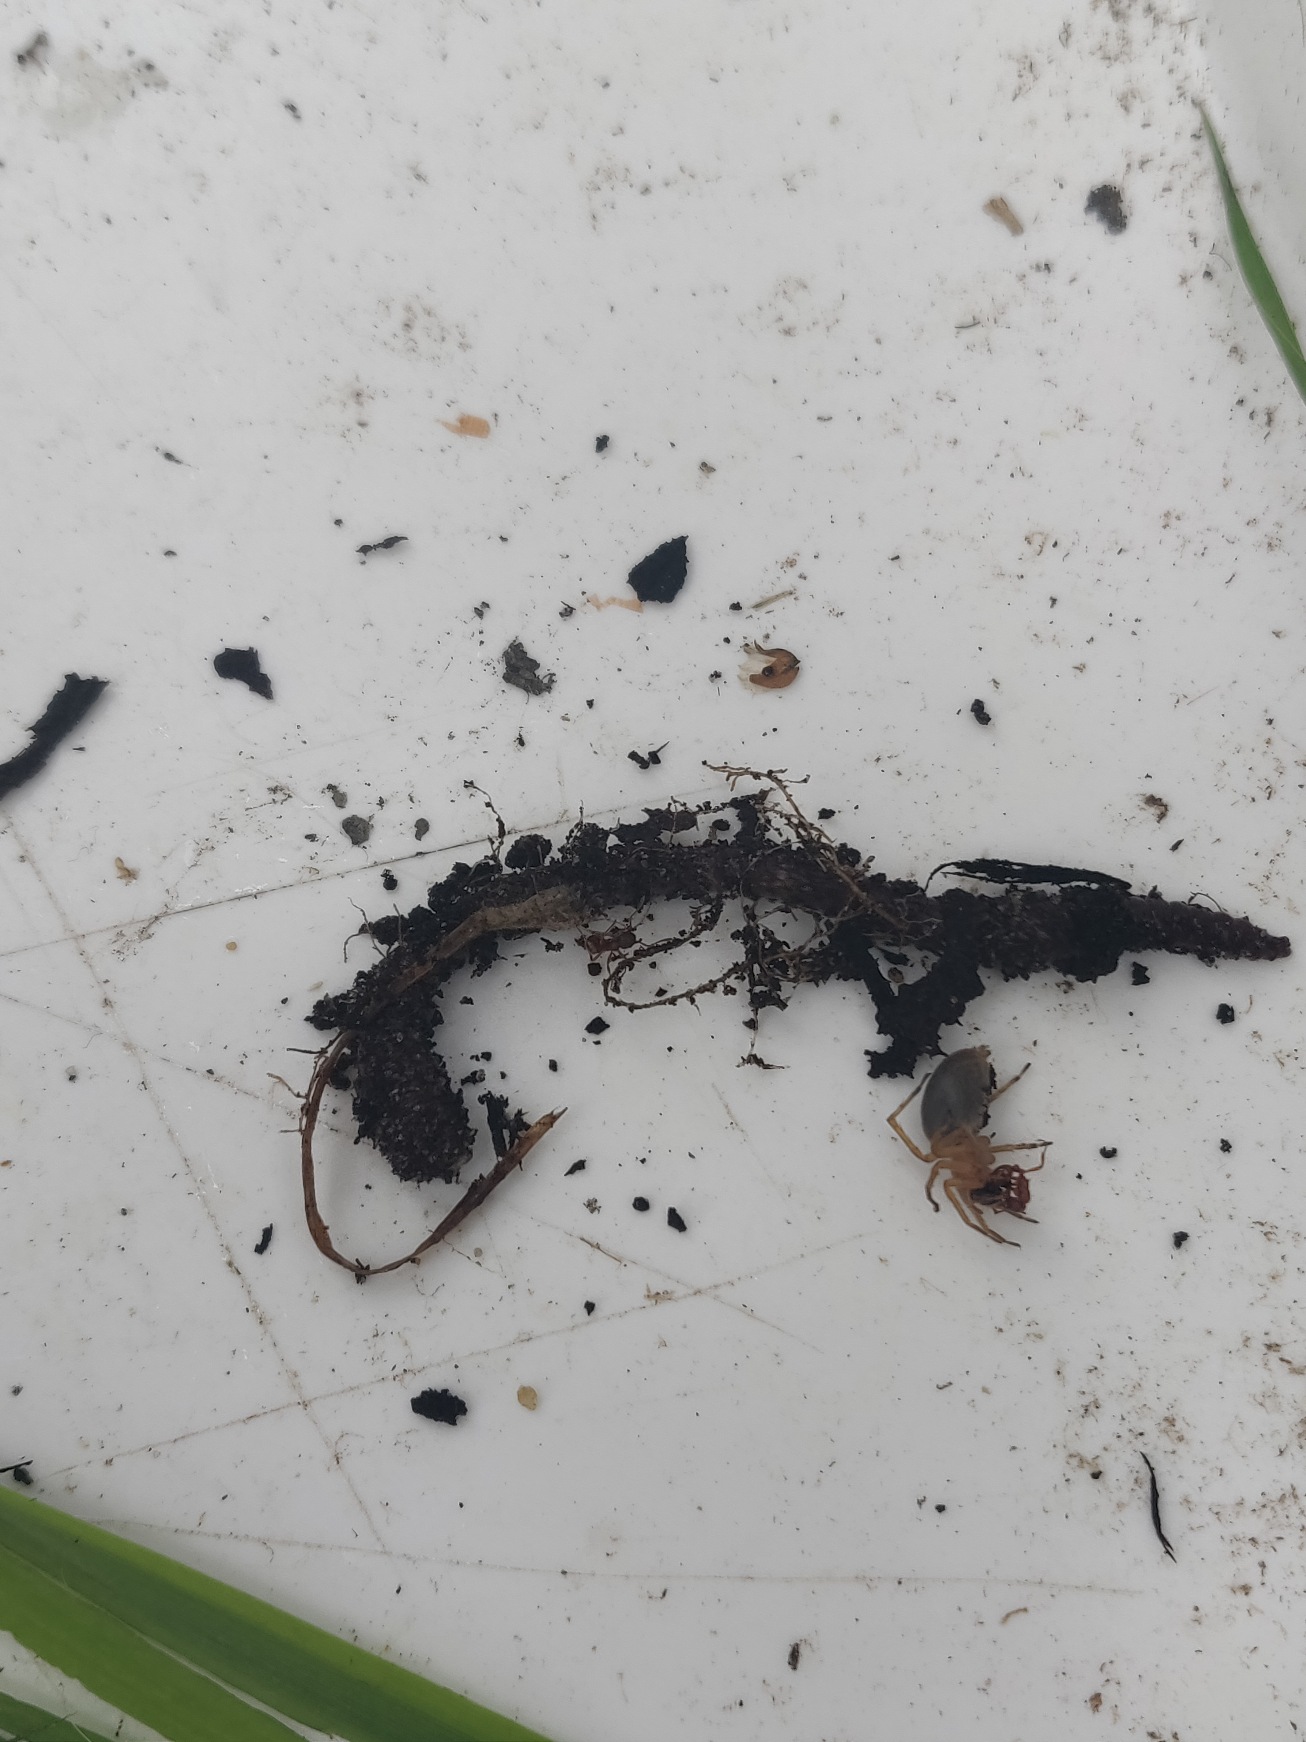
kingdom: Animalia
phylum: Arthropoda
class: Arachnida
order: Araneae
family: Clubionidae
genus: Clubiona
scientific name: Clubiona
